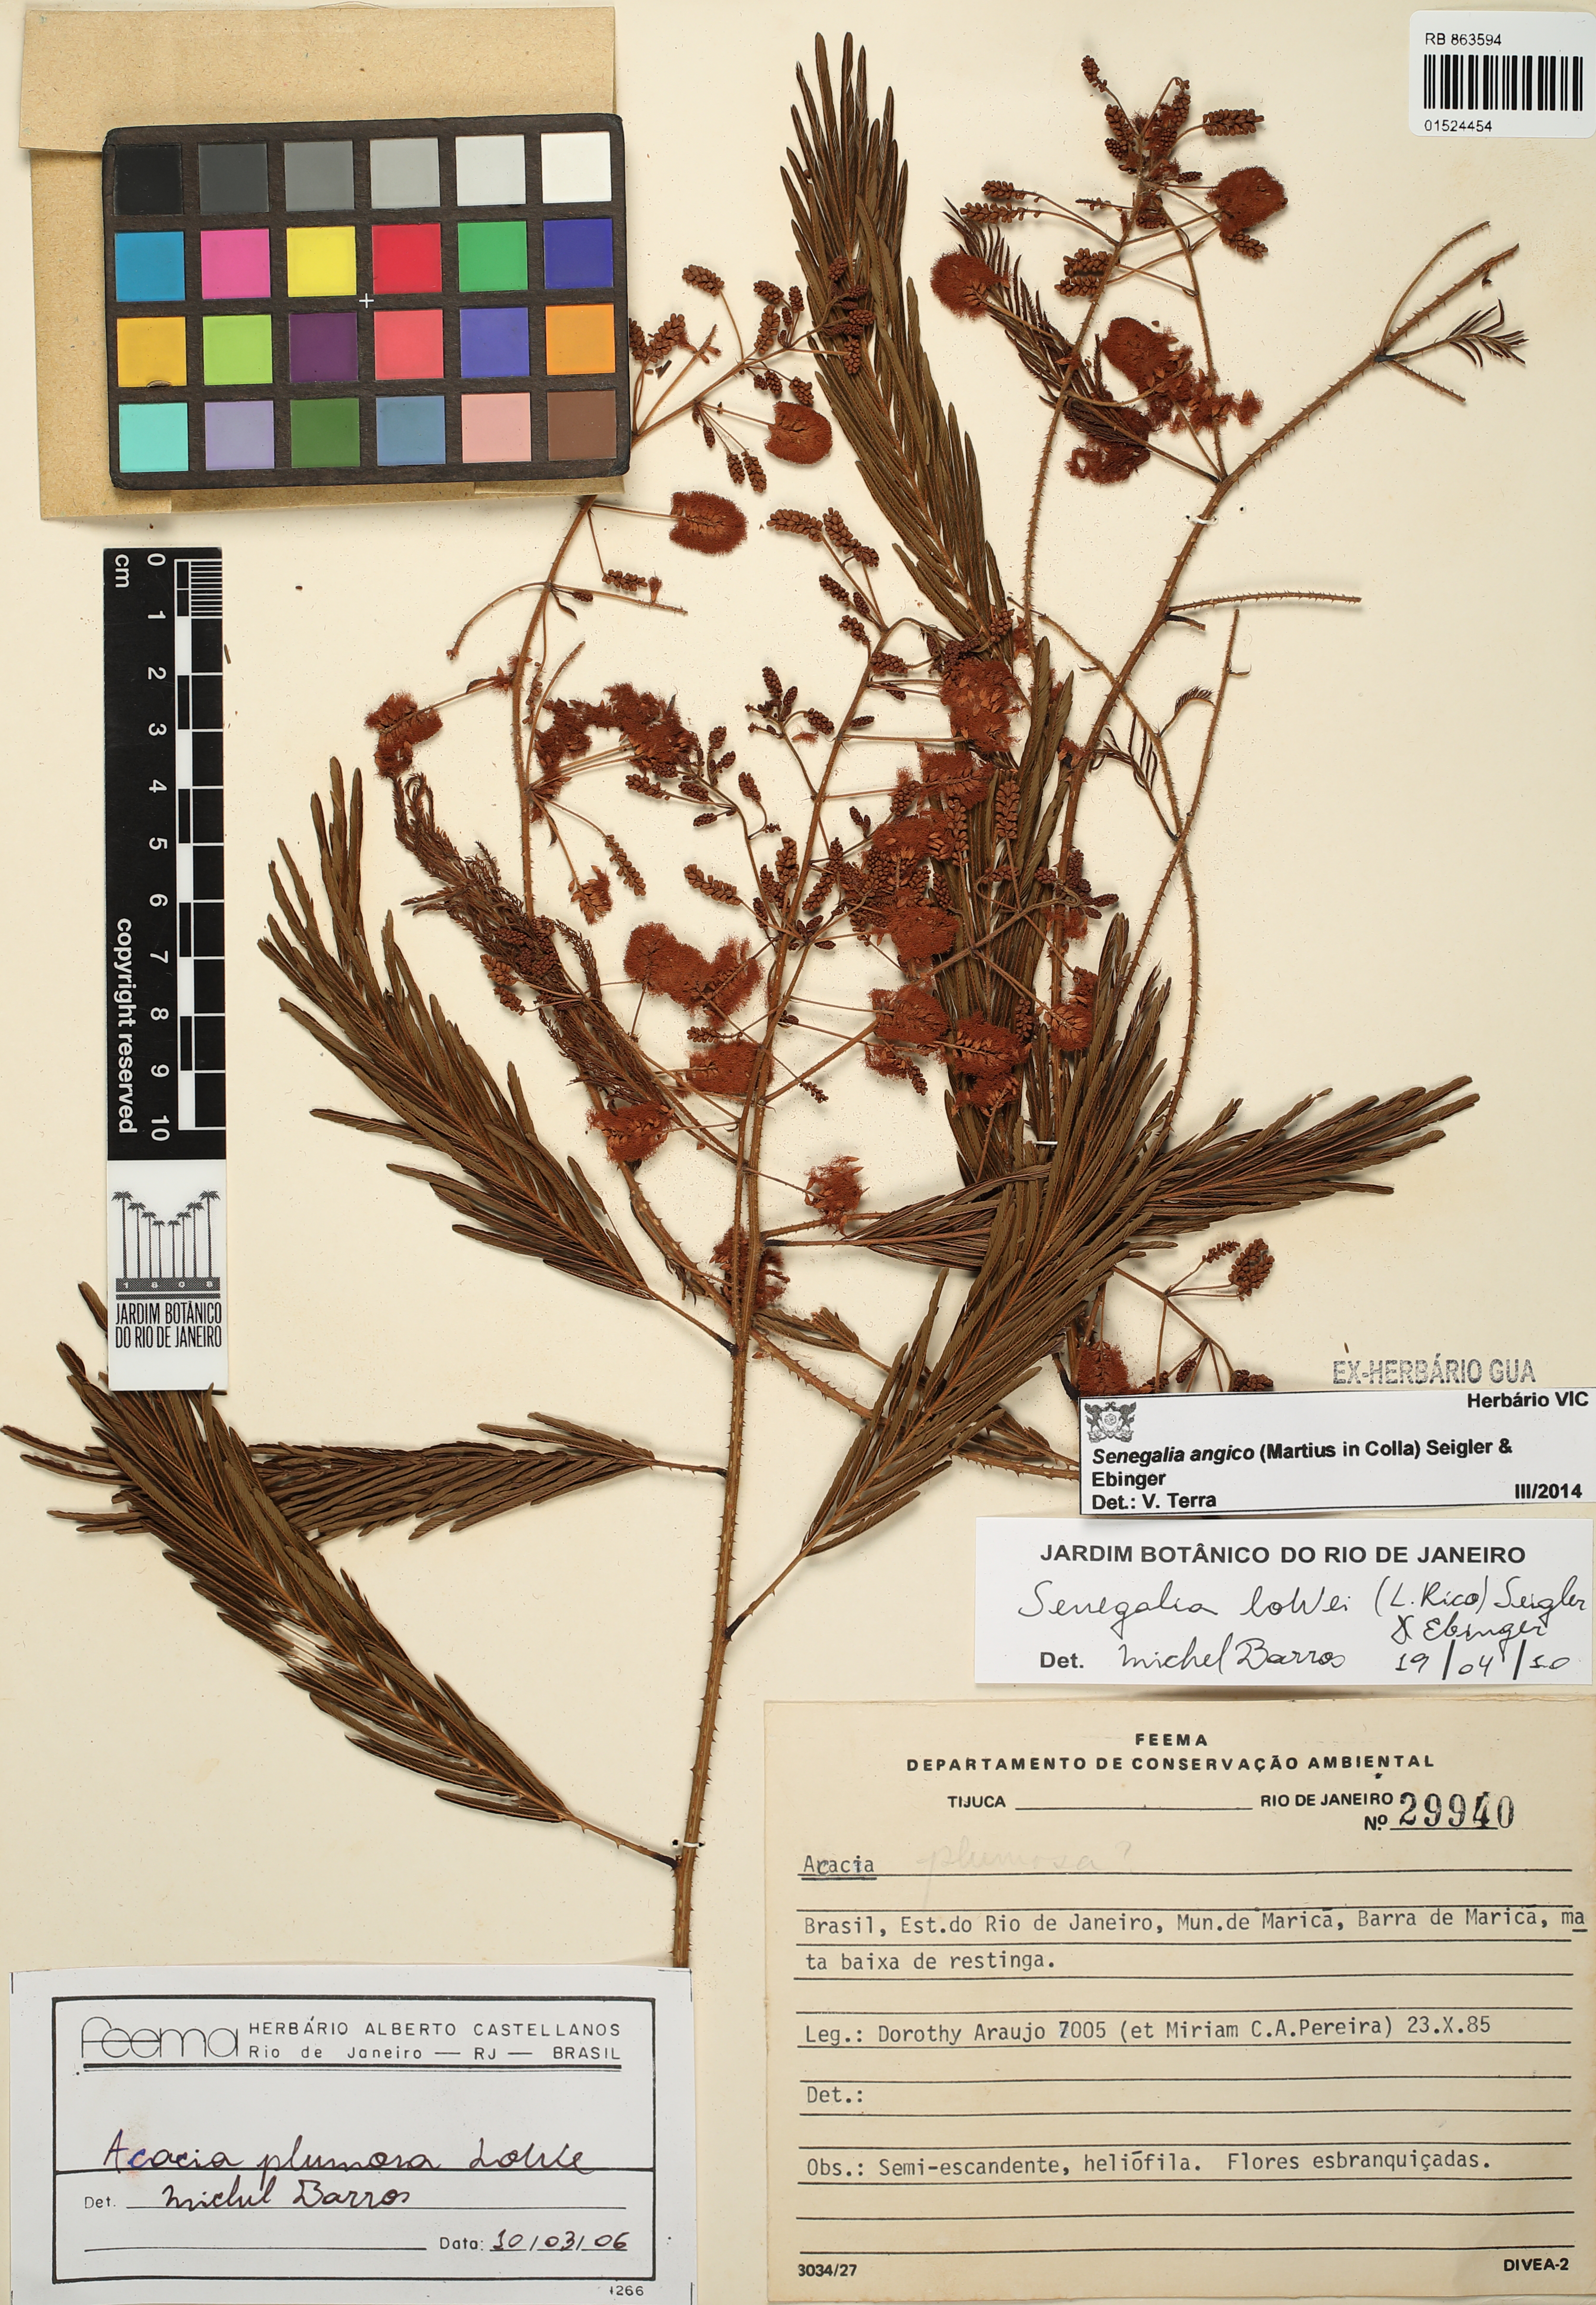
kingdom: Plantae
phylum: Tracheophyta
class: Magnoliopsida
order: Fabales
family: Fabaceae
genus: Senegalia
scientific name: Senegalia angico
